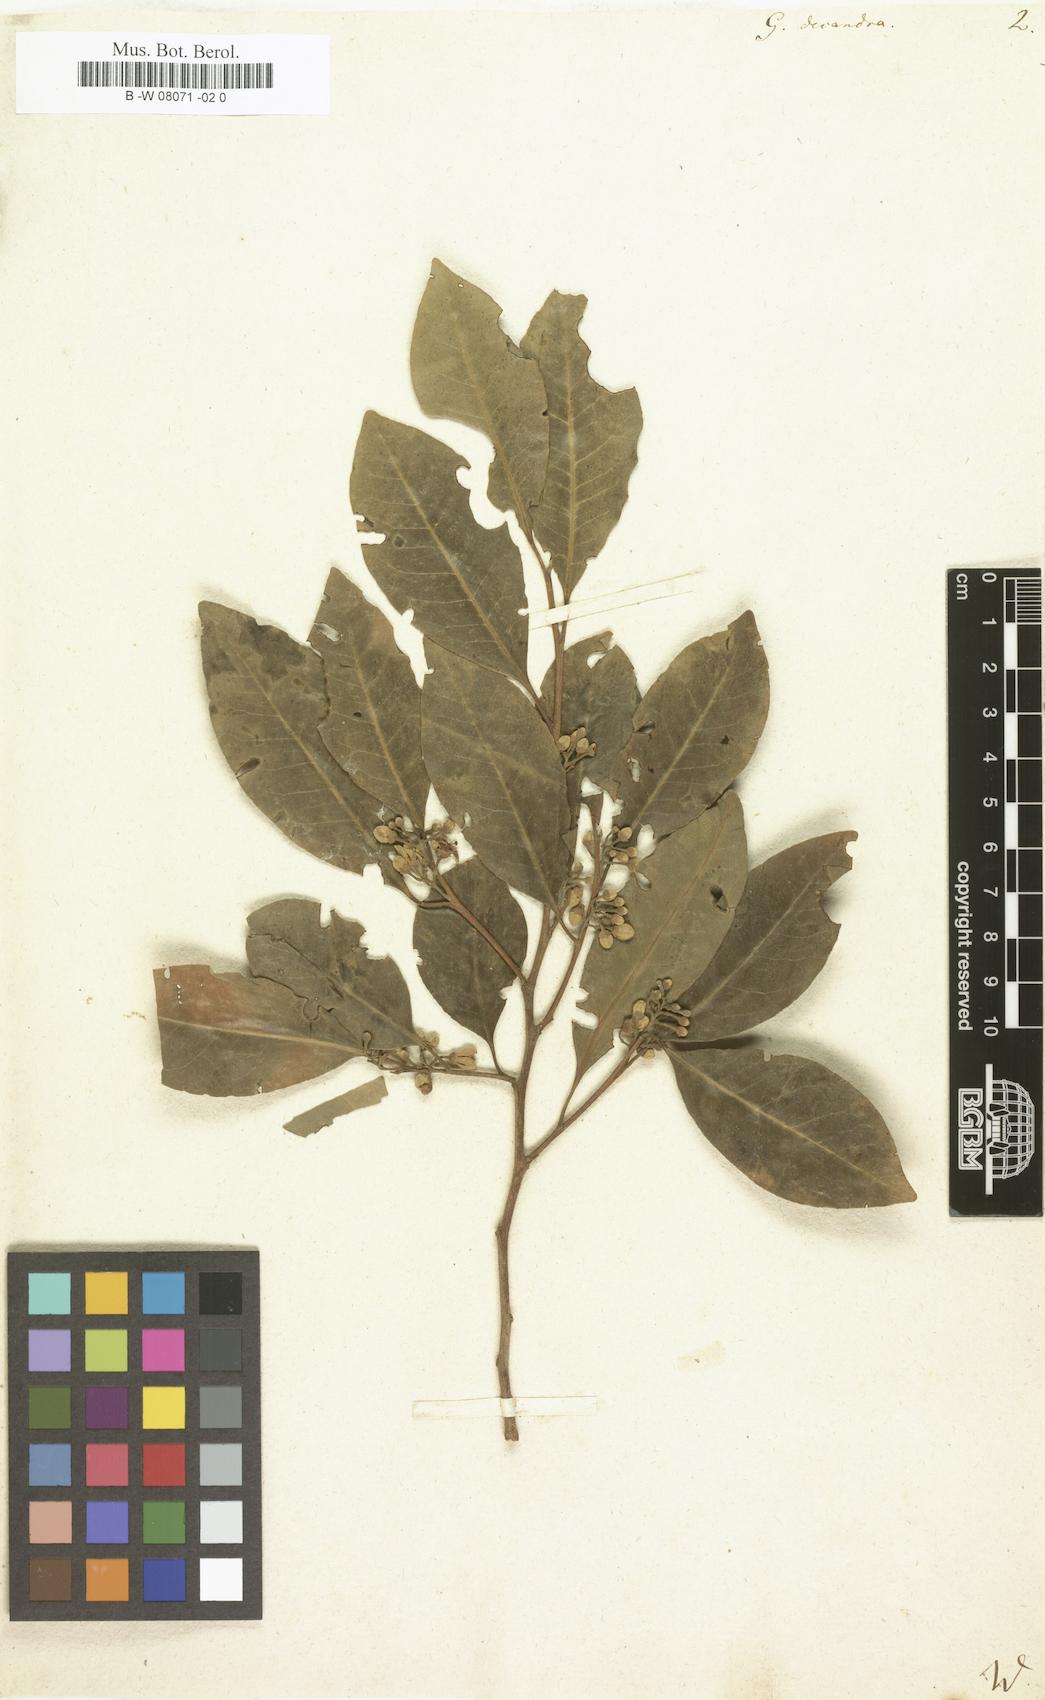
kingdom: Plantae
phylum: Tracheophyta
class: Magnoliopsida
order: Sapindales
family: Meliaceae
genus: Turraea
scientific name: Turraea rutilans
